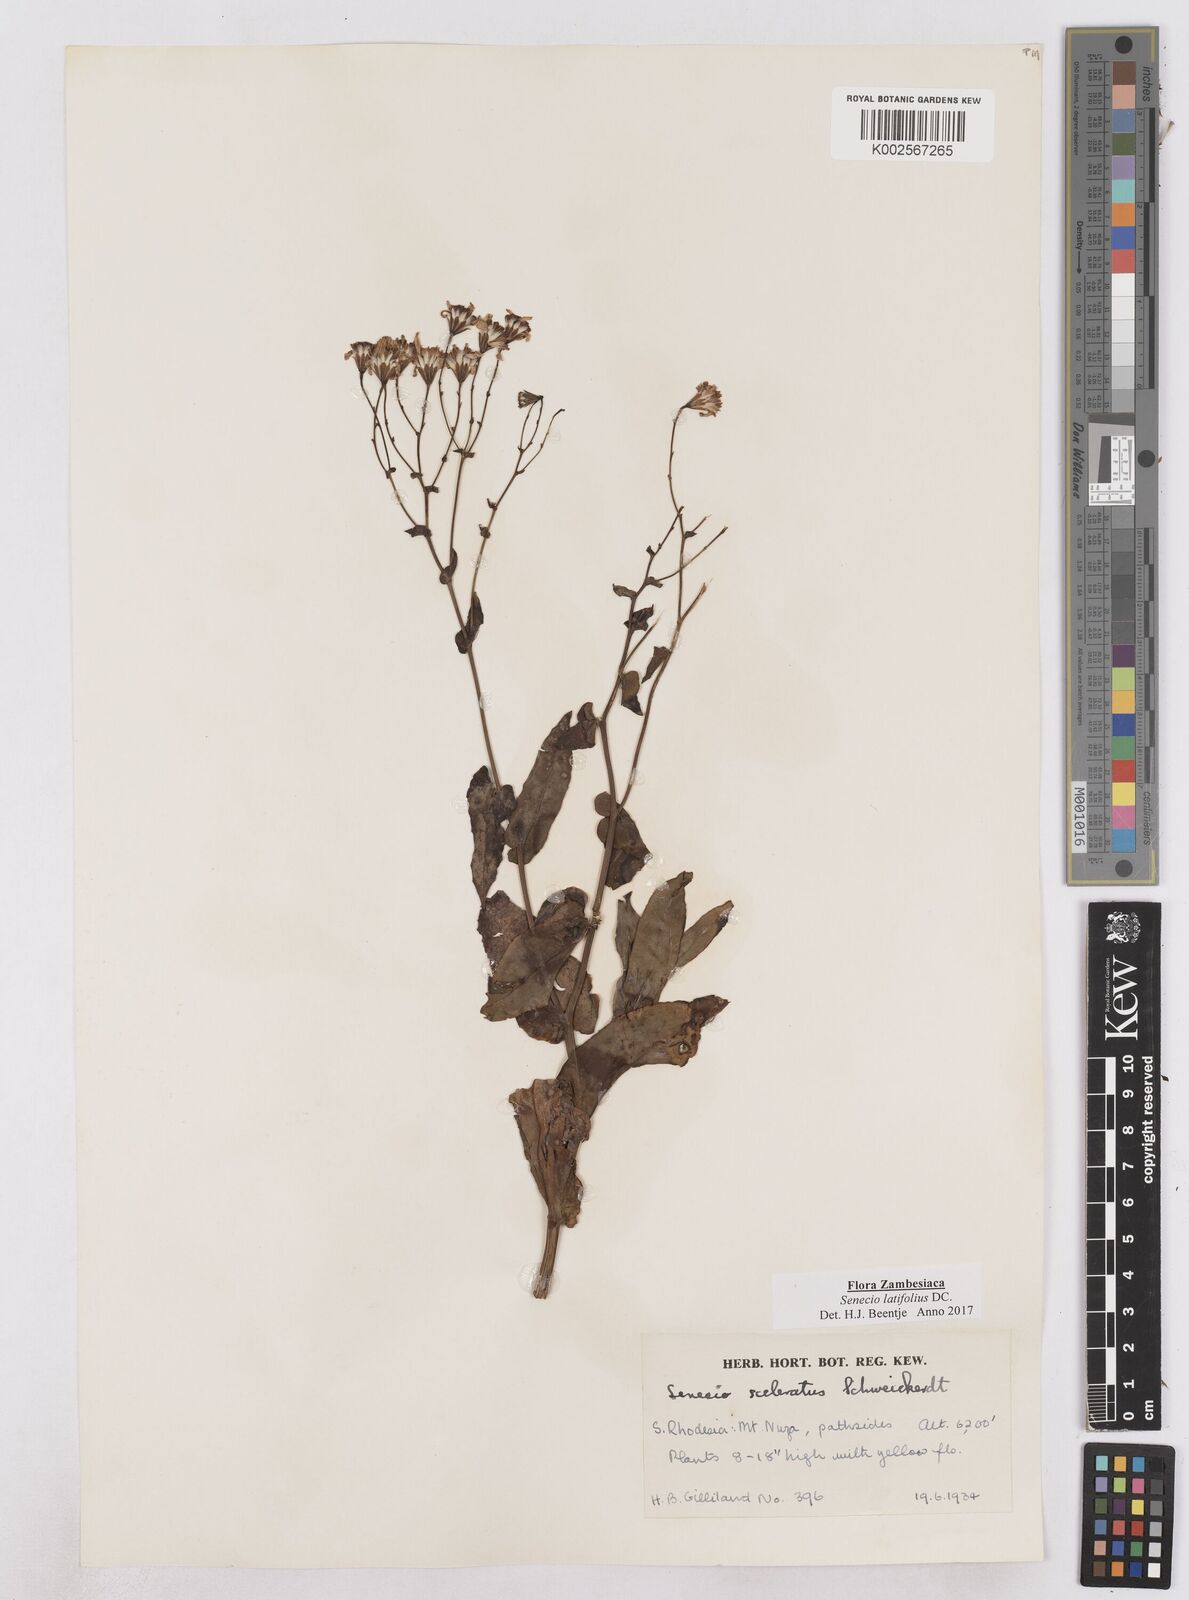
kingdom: Plantae
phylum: Tracheophyta
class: Magnoliopsida
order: Asterales
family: Asteraceae
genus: Senecio
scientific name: Senecio latifolius
